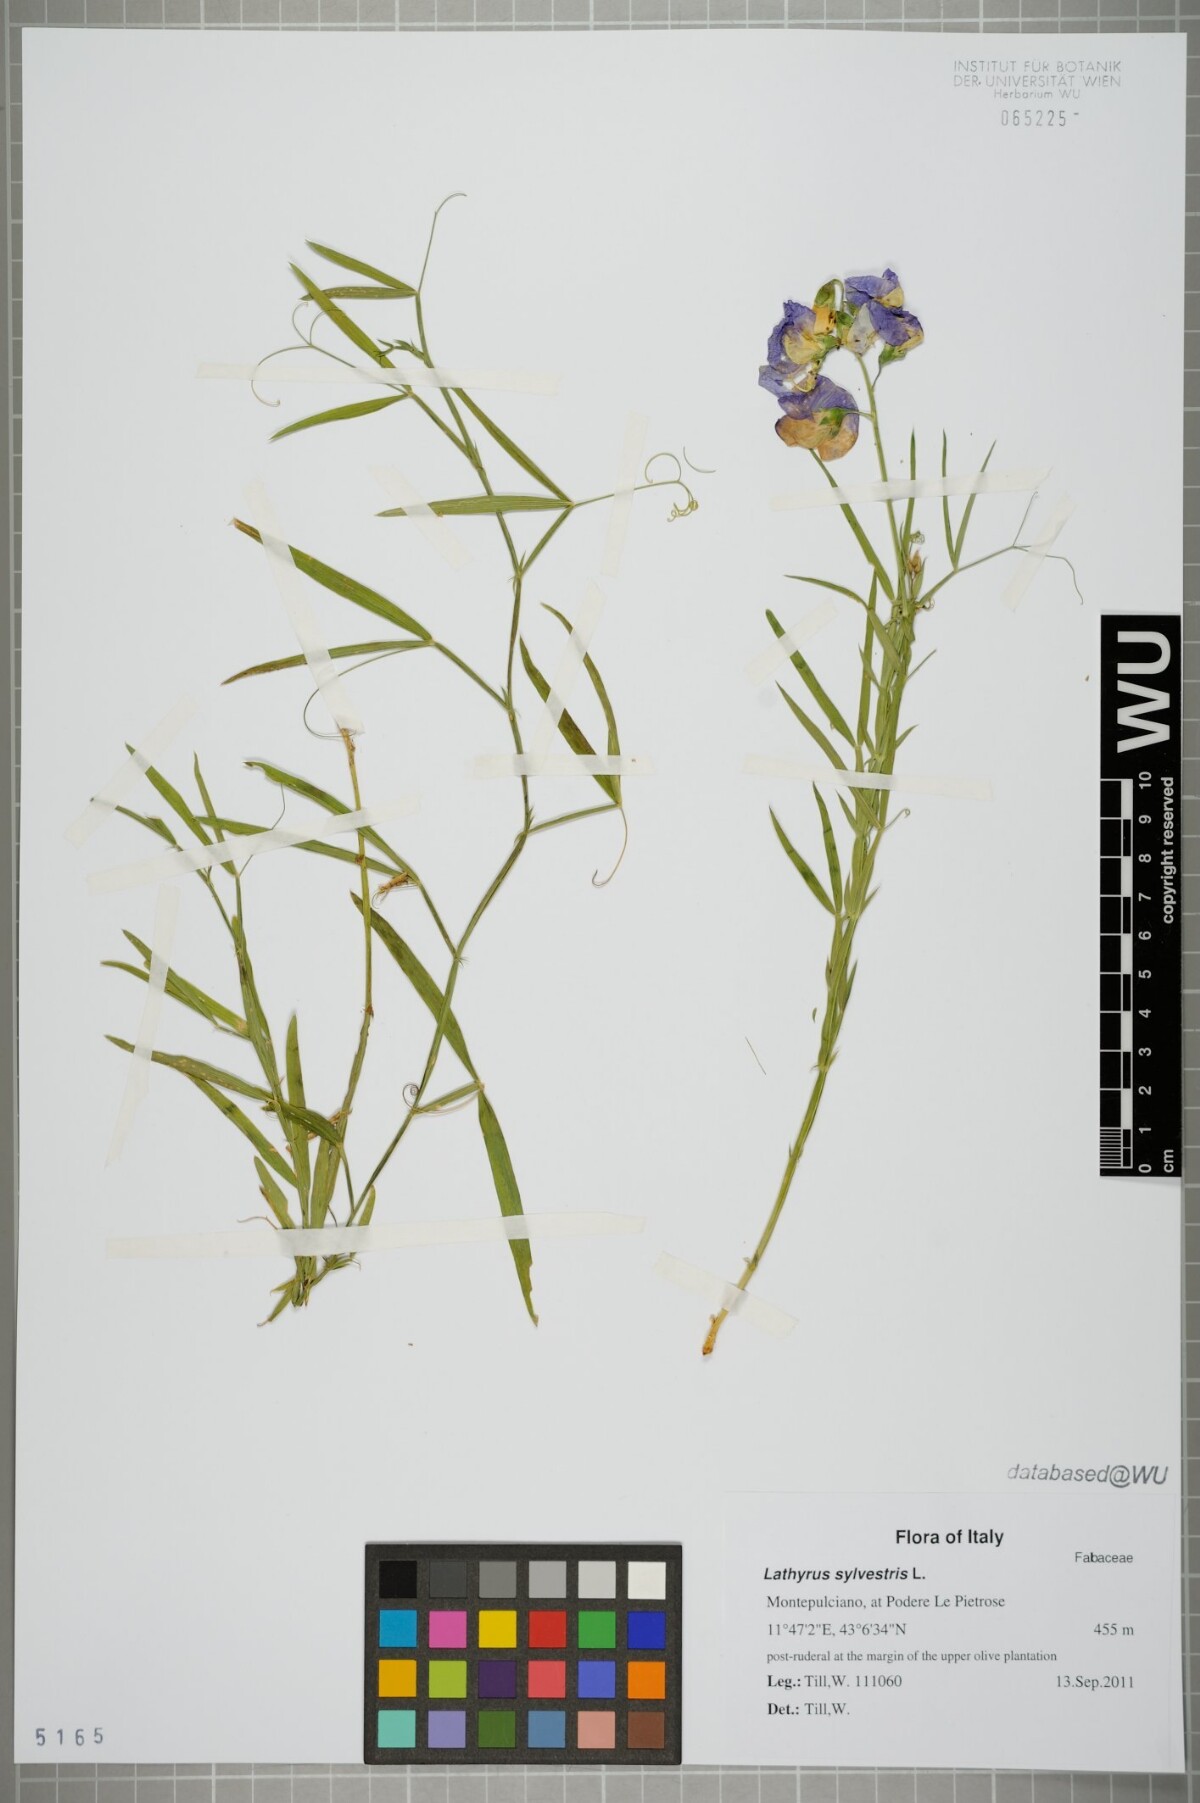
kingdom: Plantae
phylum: Tracheophyta
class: Magnoliopsida
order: Fabales
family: Fabaceae
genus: Lathyrus
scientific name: Lathyrus sylvestris
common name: Flat pea
